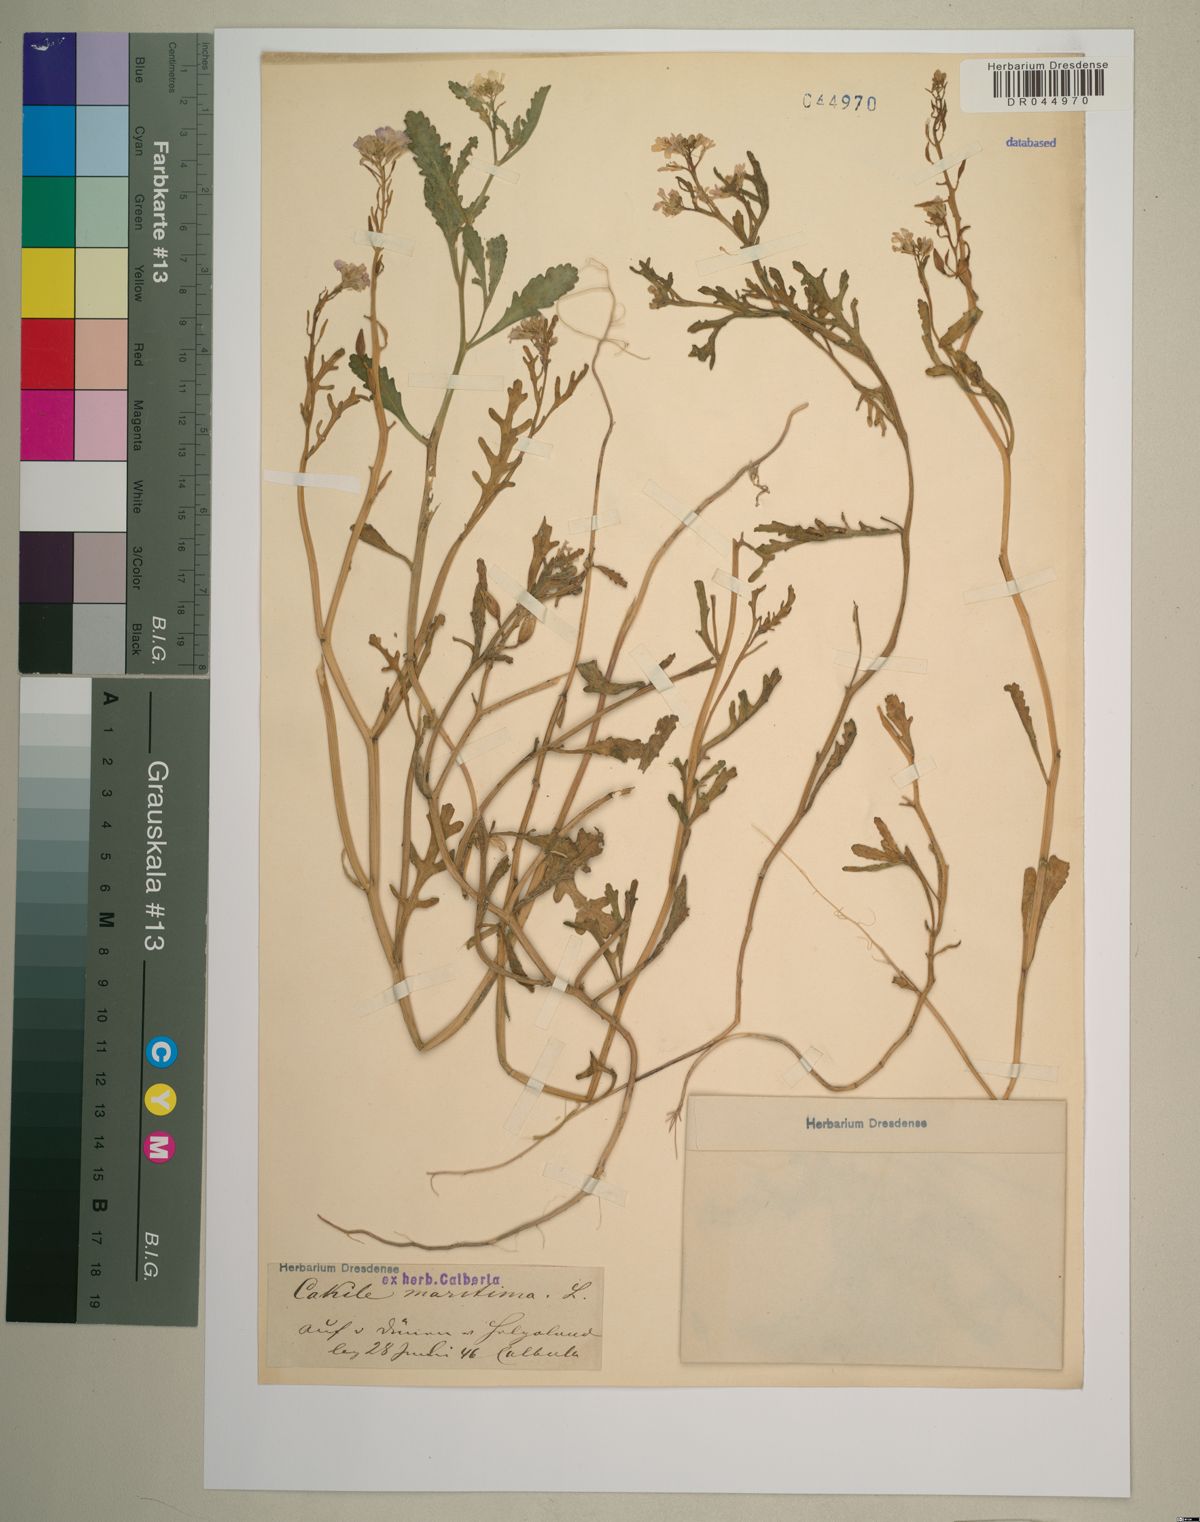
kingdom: Plantae
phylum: Tracheophyta
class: Magnoliopsida
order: Brassicales
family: Brassicaceae
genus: Cakile
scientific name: Cakile maritima
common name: Sea rocket
